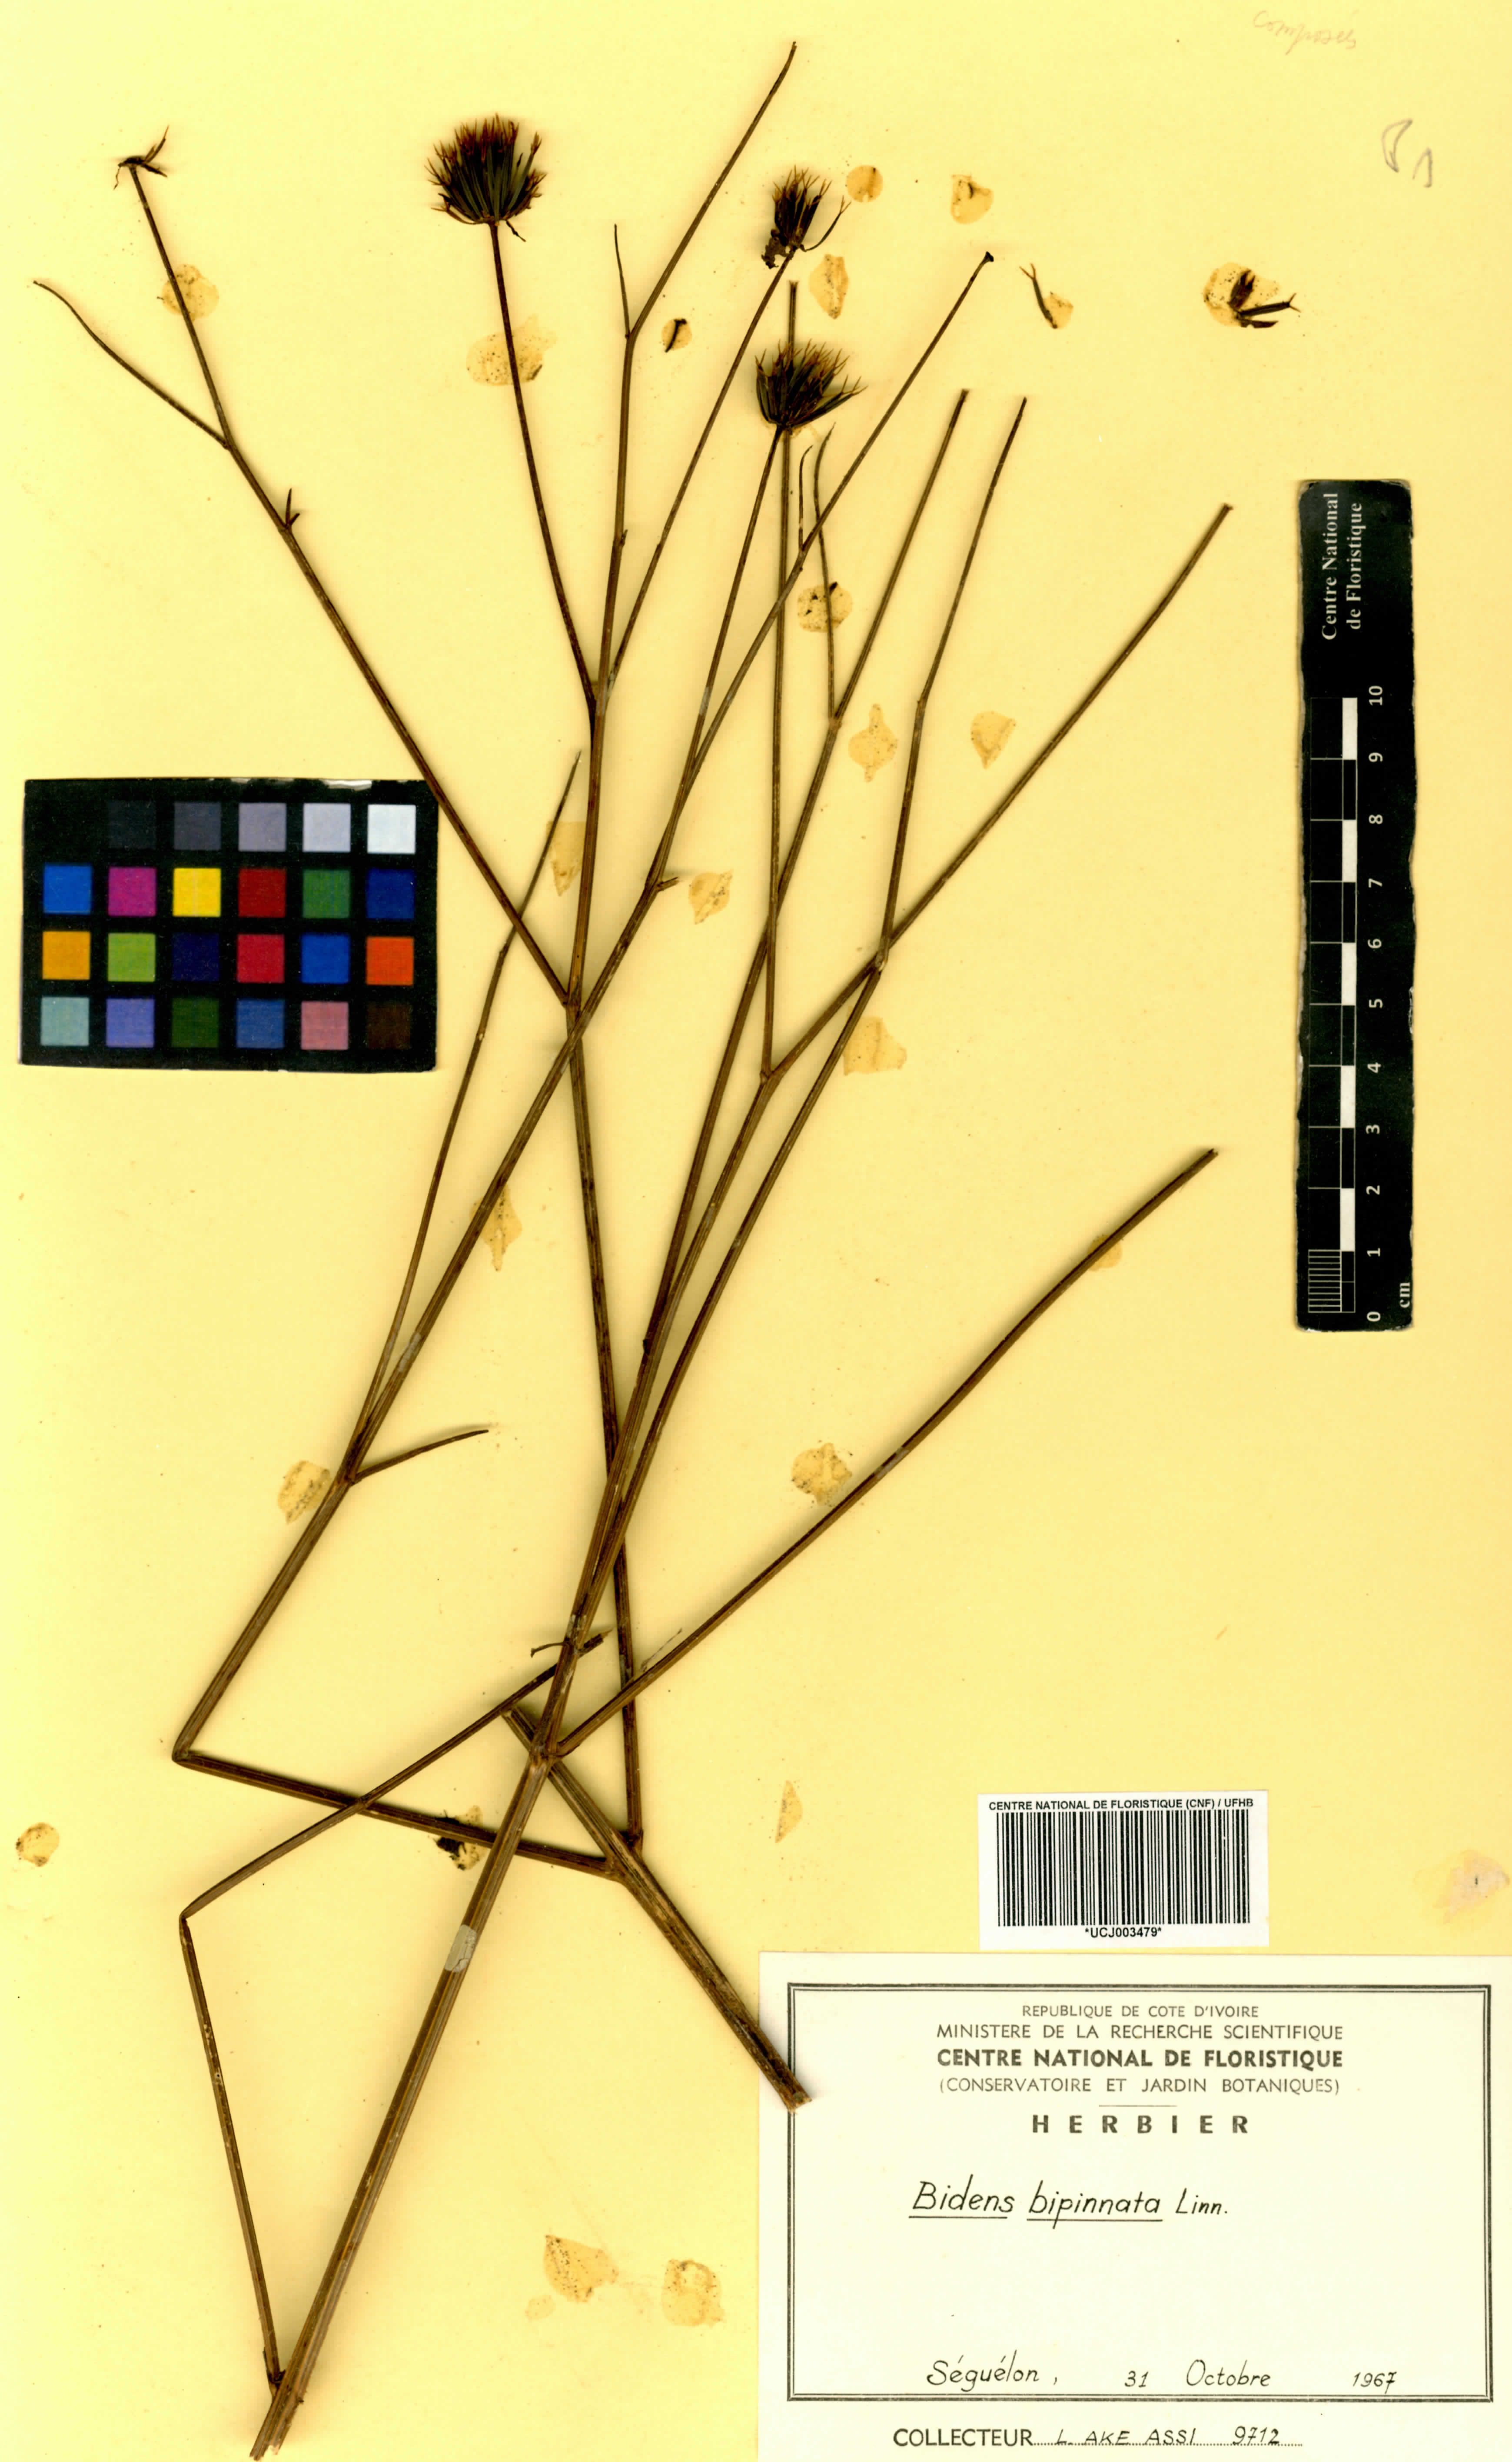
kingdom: Plantae
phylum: Tracheophyta
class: Magnoliopsida
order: Asterales
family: Asteraceae
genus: Bidens
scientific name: Bidens bipinnata
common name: Spanish-needles
